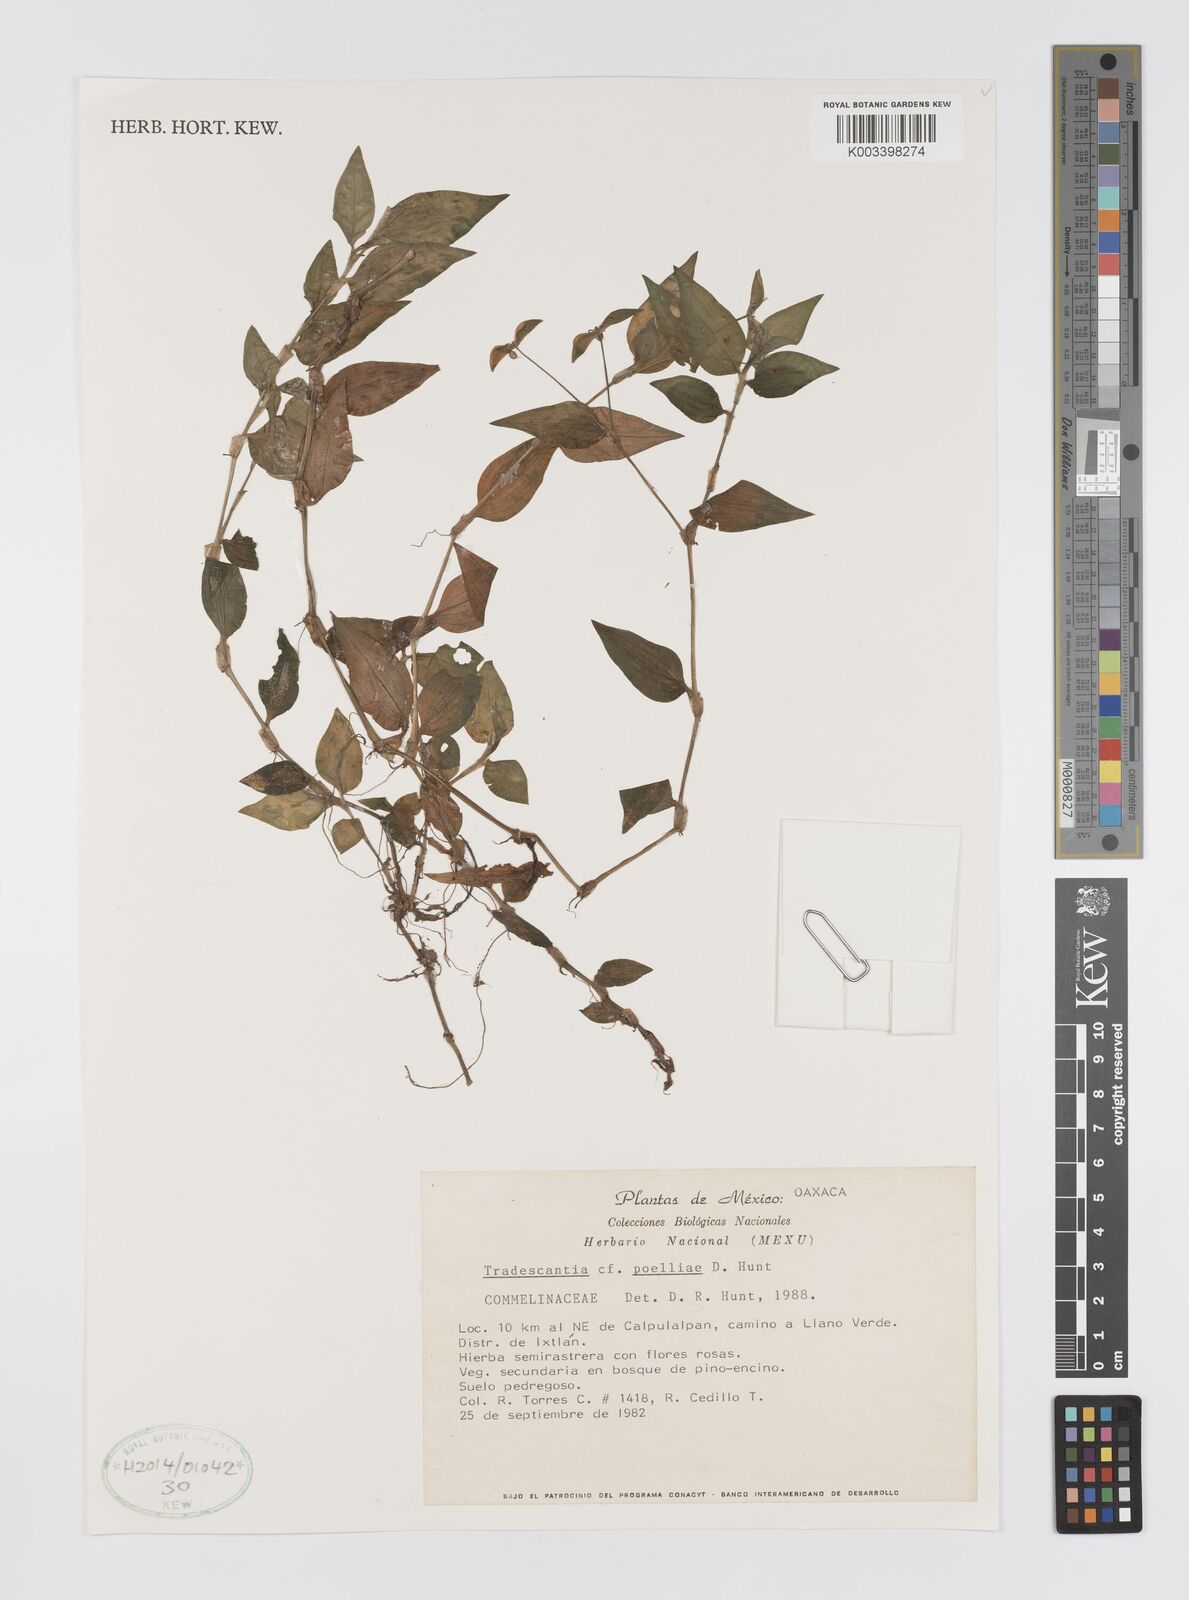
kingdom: Plantae
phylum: Tracheophyta
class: Liliopsida
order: Commelinales
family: Commelinaceae
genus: Tradescantia
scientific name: Tradescantia poelliae
